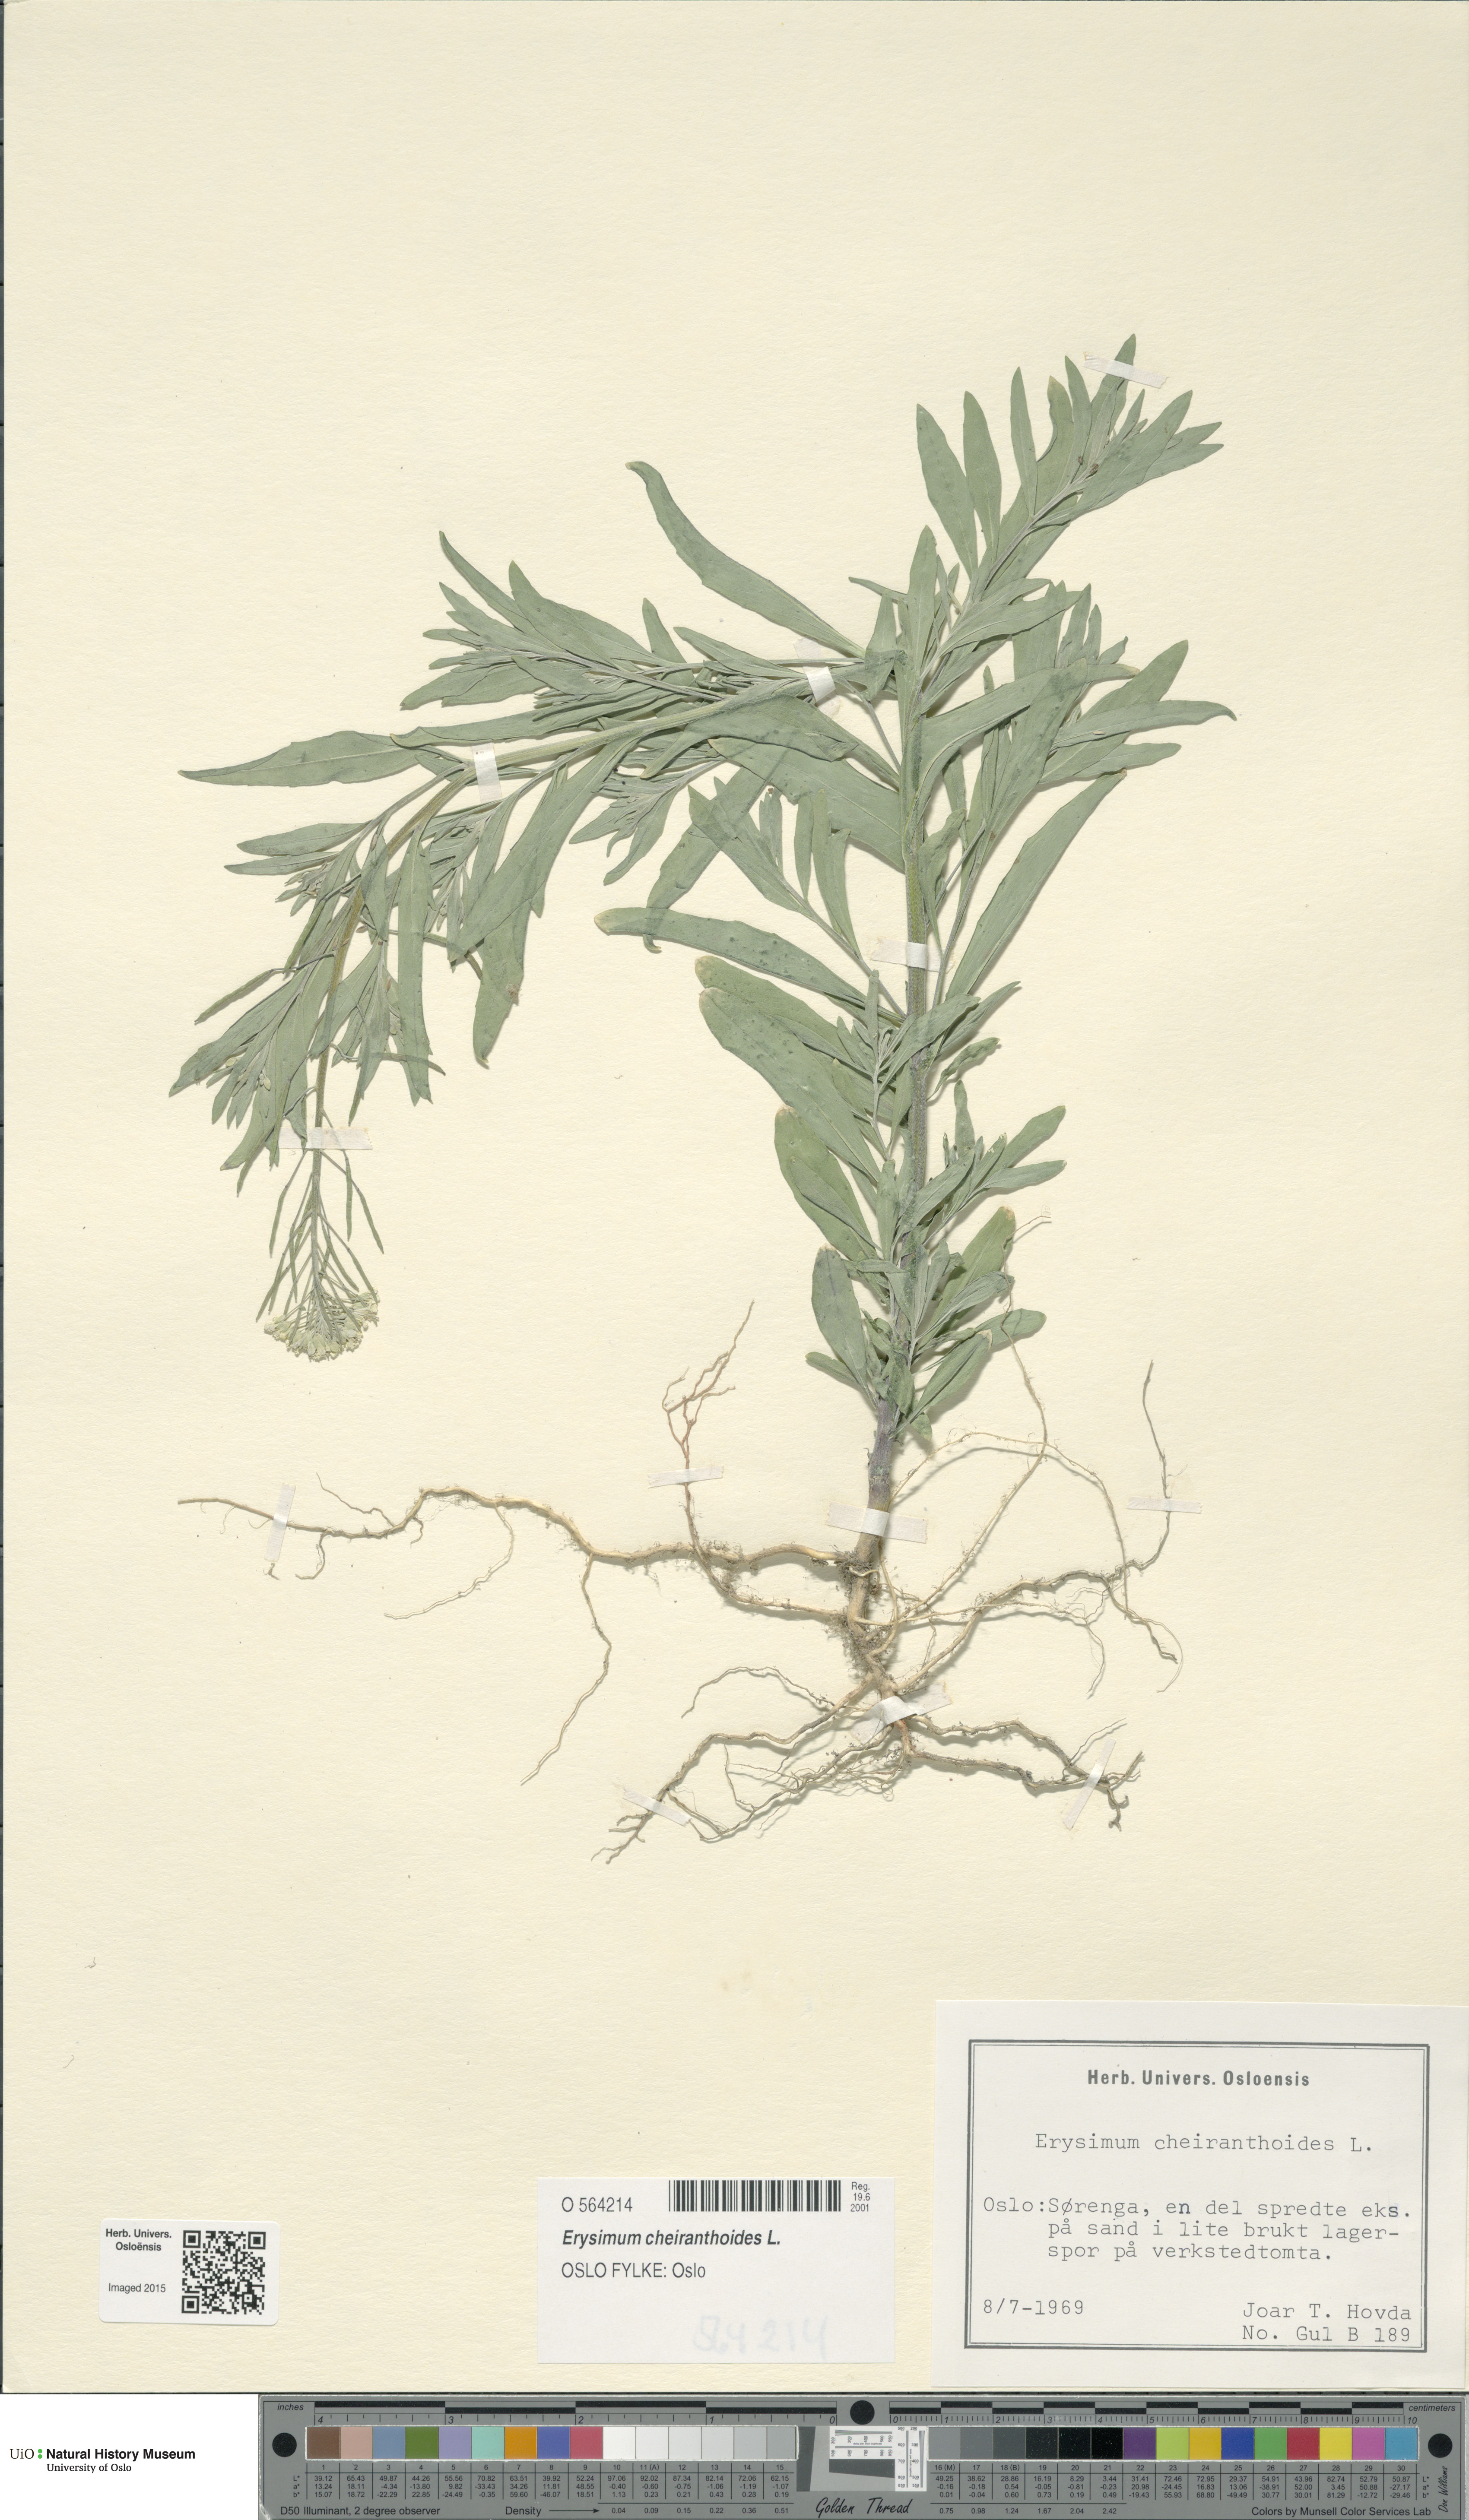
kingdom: Plantae
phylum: Tracheophyta
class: Magnoliopsida
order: Brassicales
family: Brassicaceae
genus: Erysimum
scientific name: Erysimum cheiranthoides
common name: Treacle mustard
